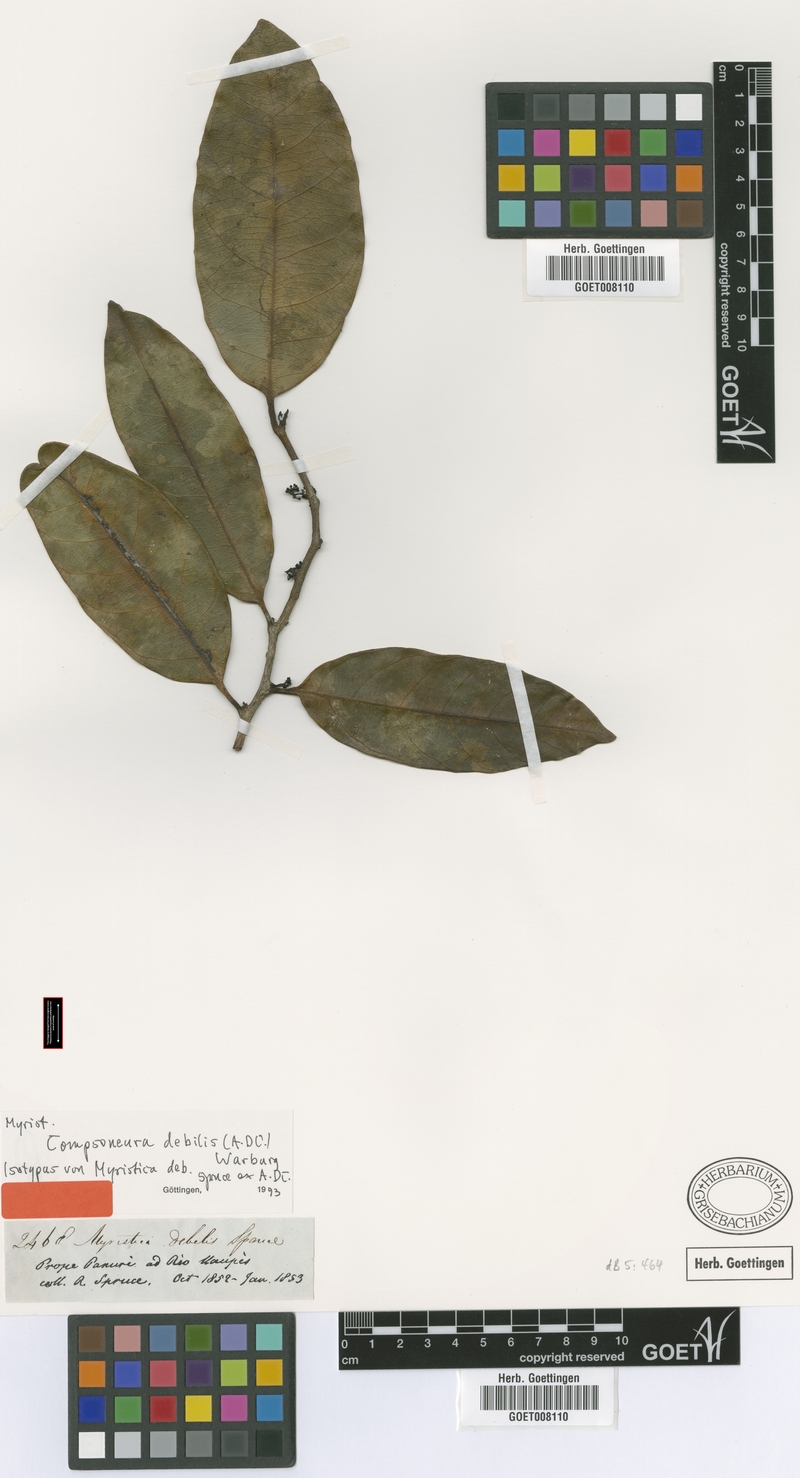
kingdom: Plantae
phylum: Tracheophyta
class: Magnoliopsida
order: Magnoliales
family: Myristicaceae
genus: Compsoneura
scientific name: Compsoneura debilis
